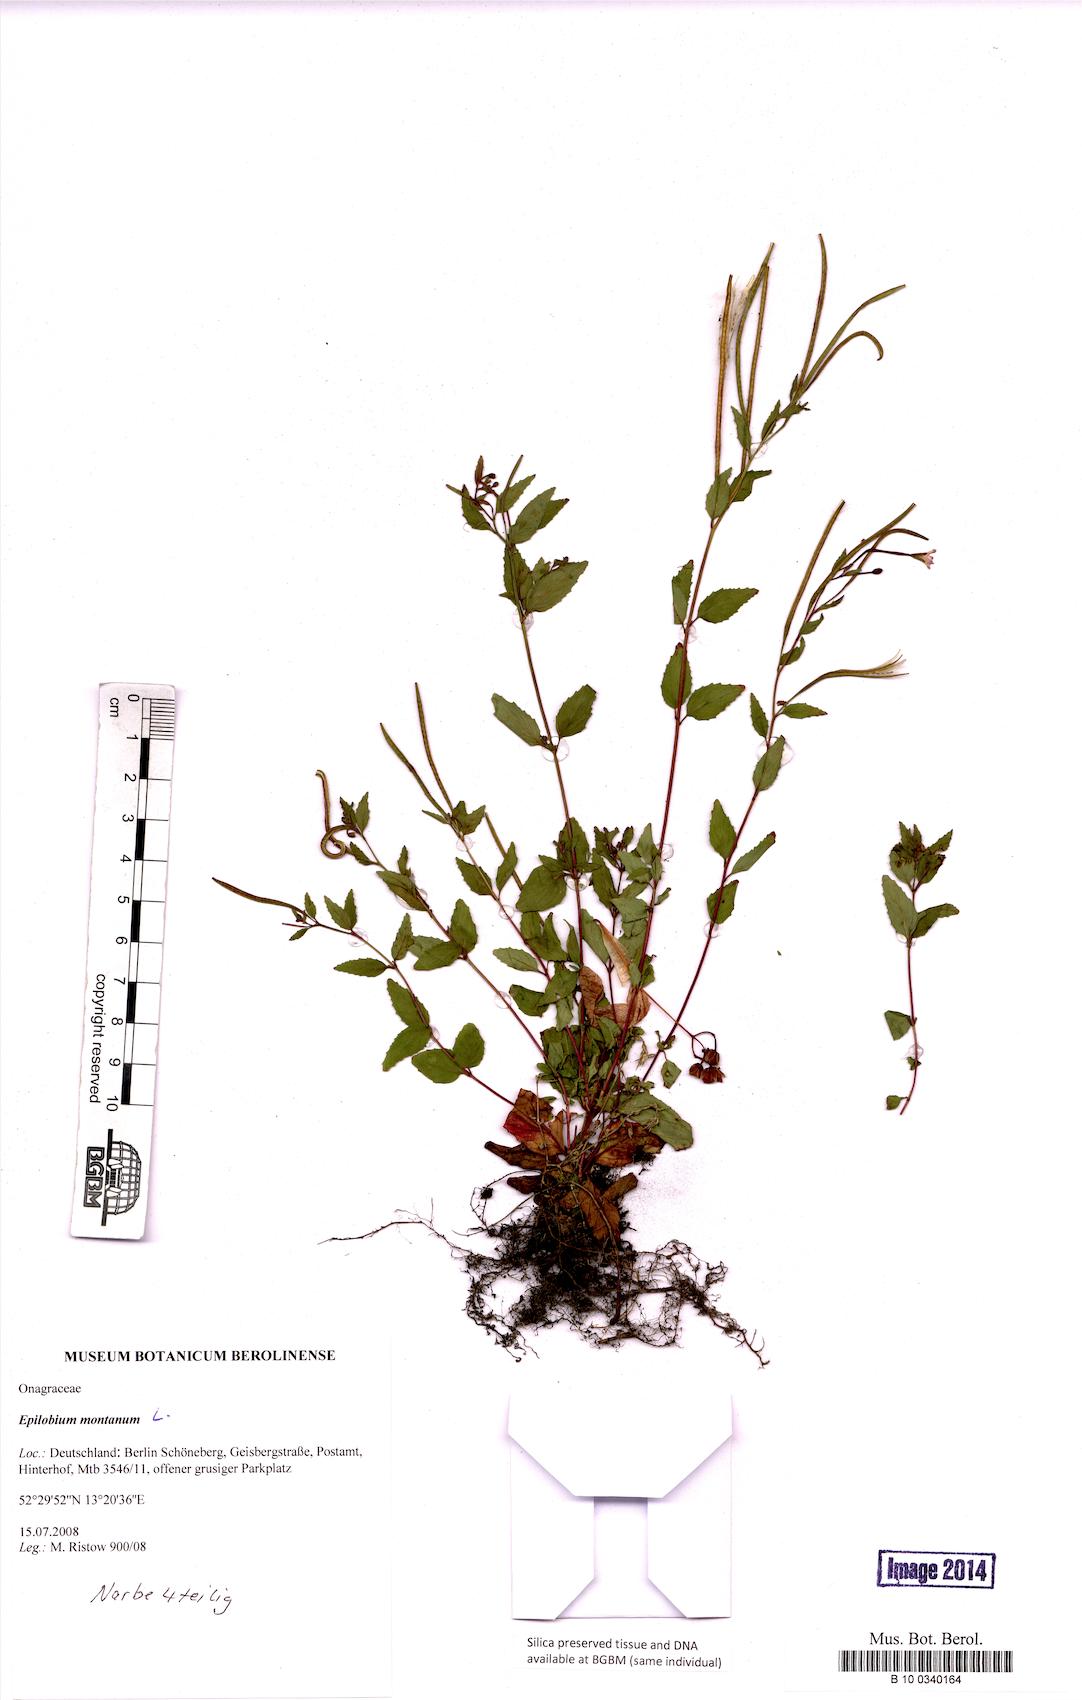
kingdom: Plantae
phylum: Tracheophyta
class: Magnoliopsida
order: Myrtales
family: Onagraceae
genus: Epilobium
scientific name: Epilobium montanum
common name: Broad-leaved willowherb
